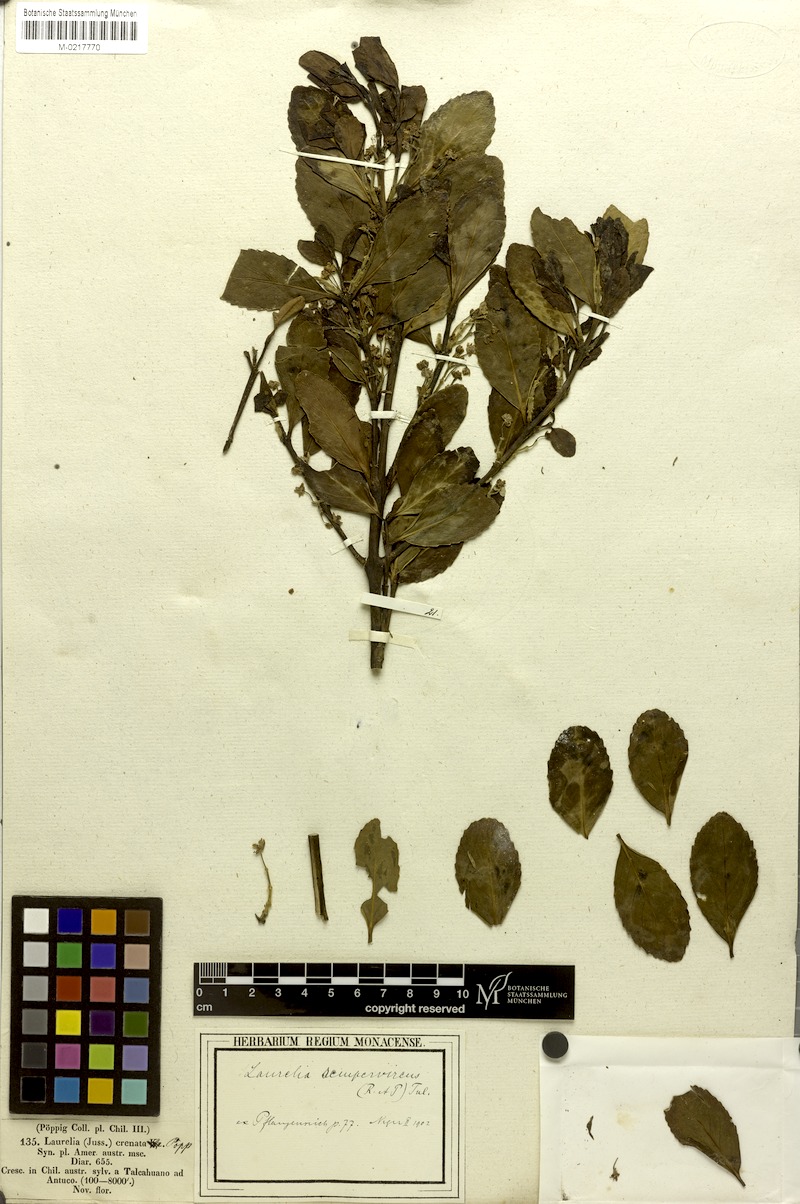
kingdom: Plantae
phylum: Tracheophyta
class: Magnoliopsida
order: Laurales
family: Atherospermataceae
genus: Laurelia
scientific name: Laurelia sempervirens
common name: Chilean laurel
